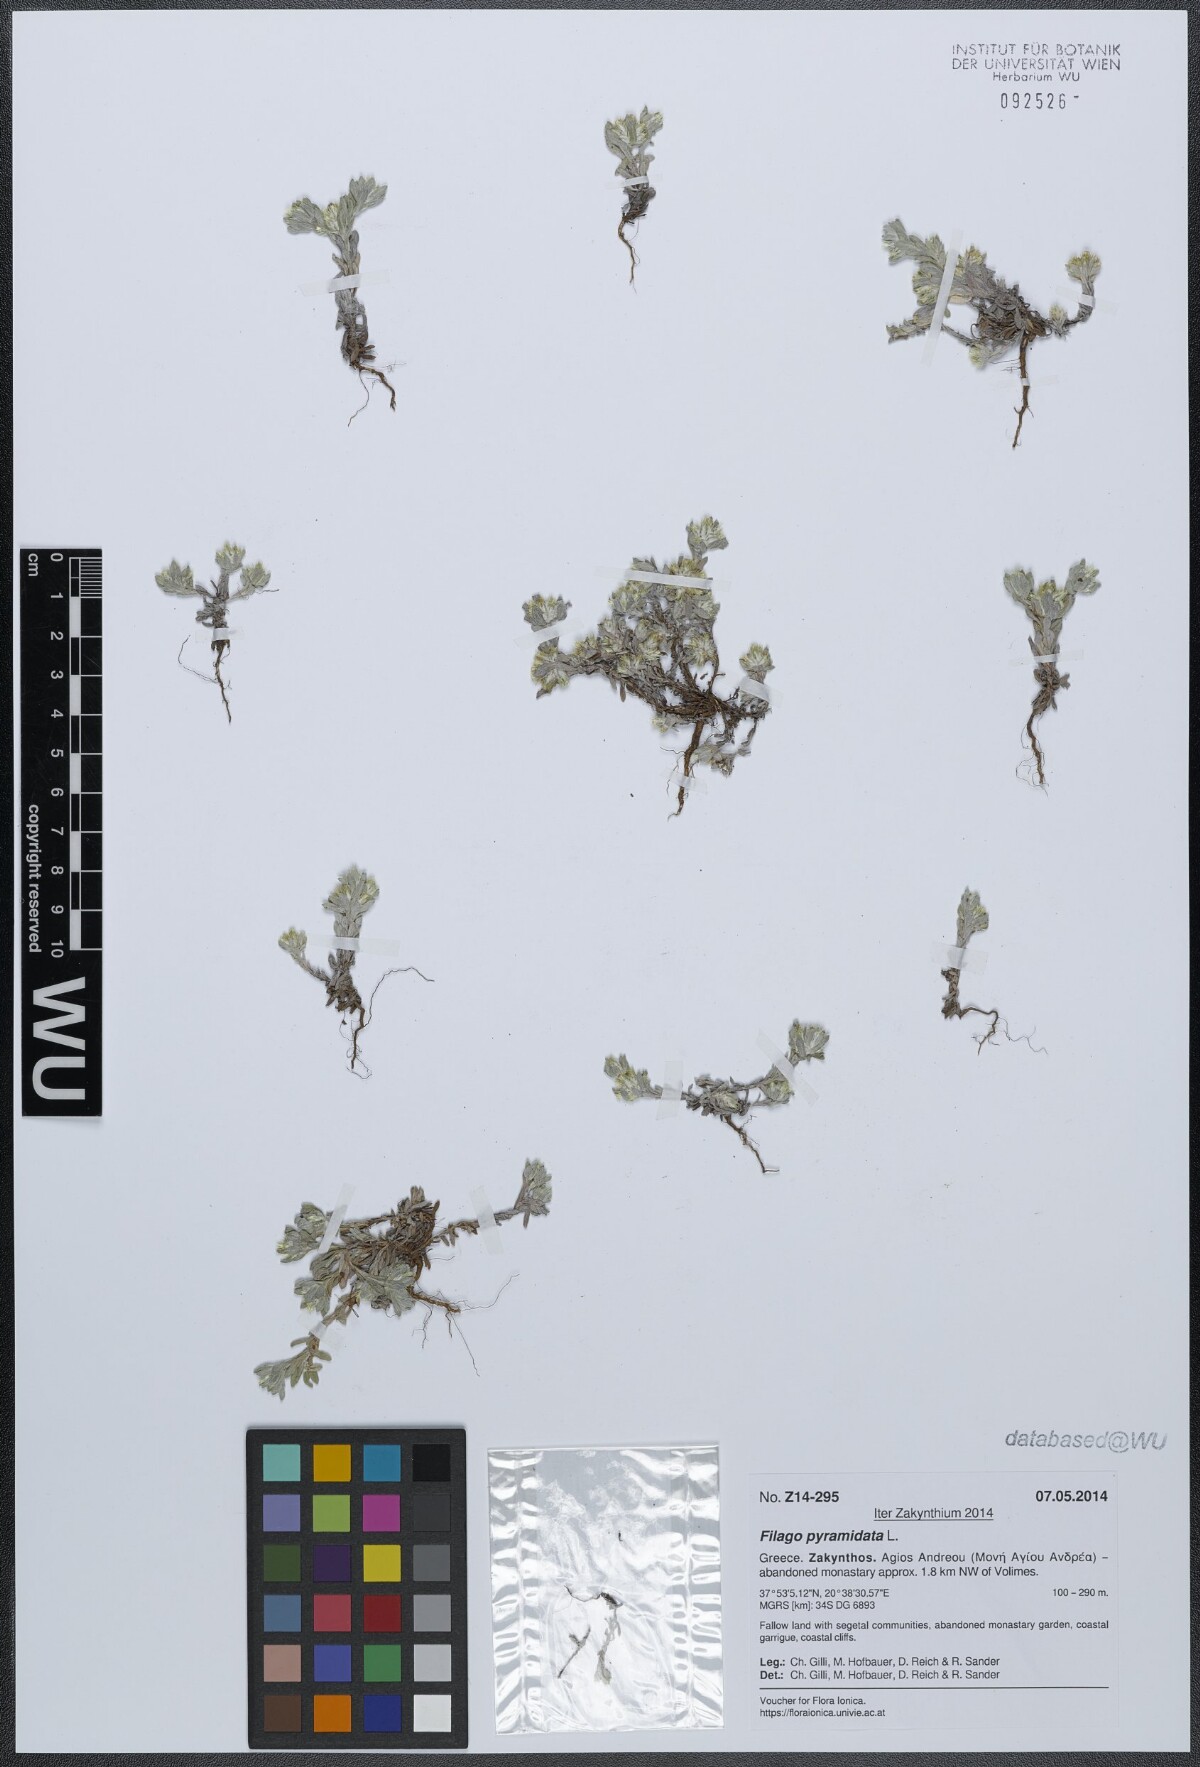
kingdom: Plantae
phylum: Tracheophyta
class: Magnoliopsida
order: Asterales
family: Asteraceae
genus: Filago
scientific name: Filago pyramidata
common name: Broad-leaved cudweed
